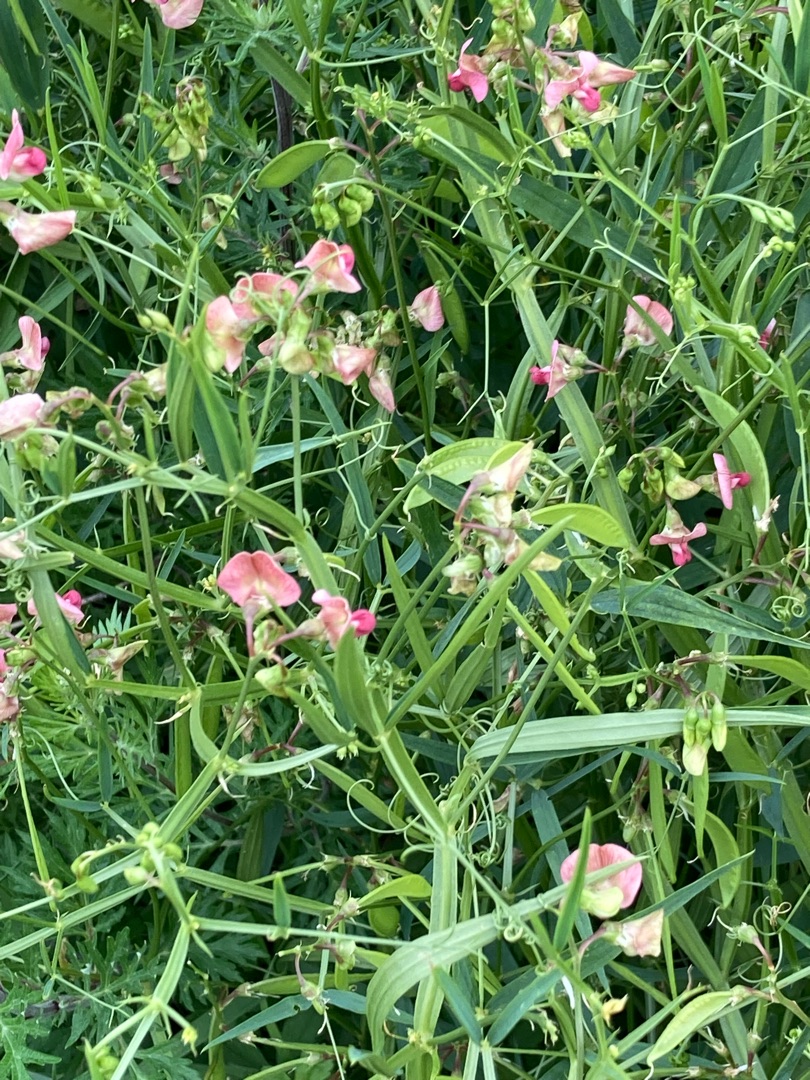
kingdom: Plantae
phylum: Tracheophyta
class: Magnoliopsida
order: Fabales
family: Fabaceae
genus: Lathyrus
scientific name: Lathyrus sylvestris
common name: Skov-fladbælg
